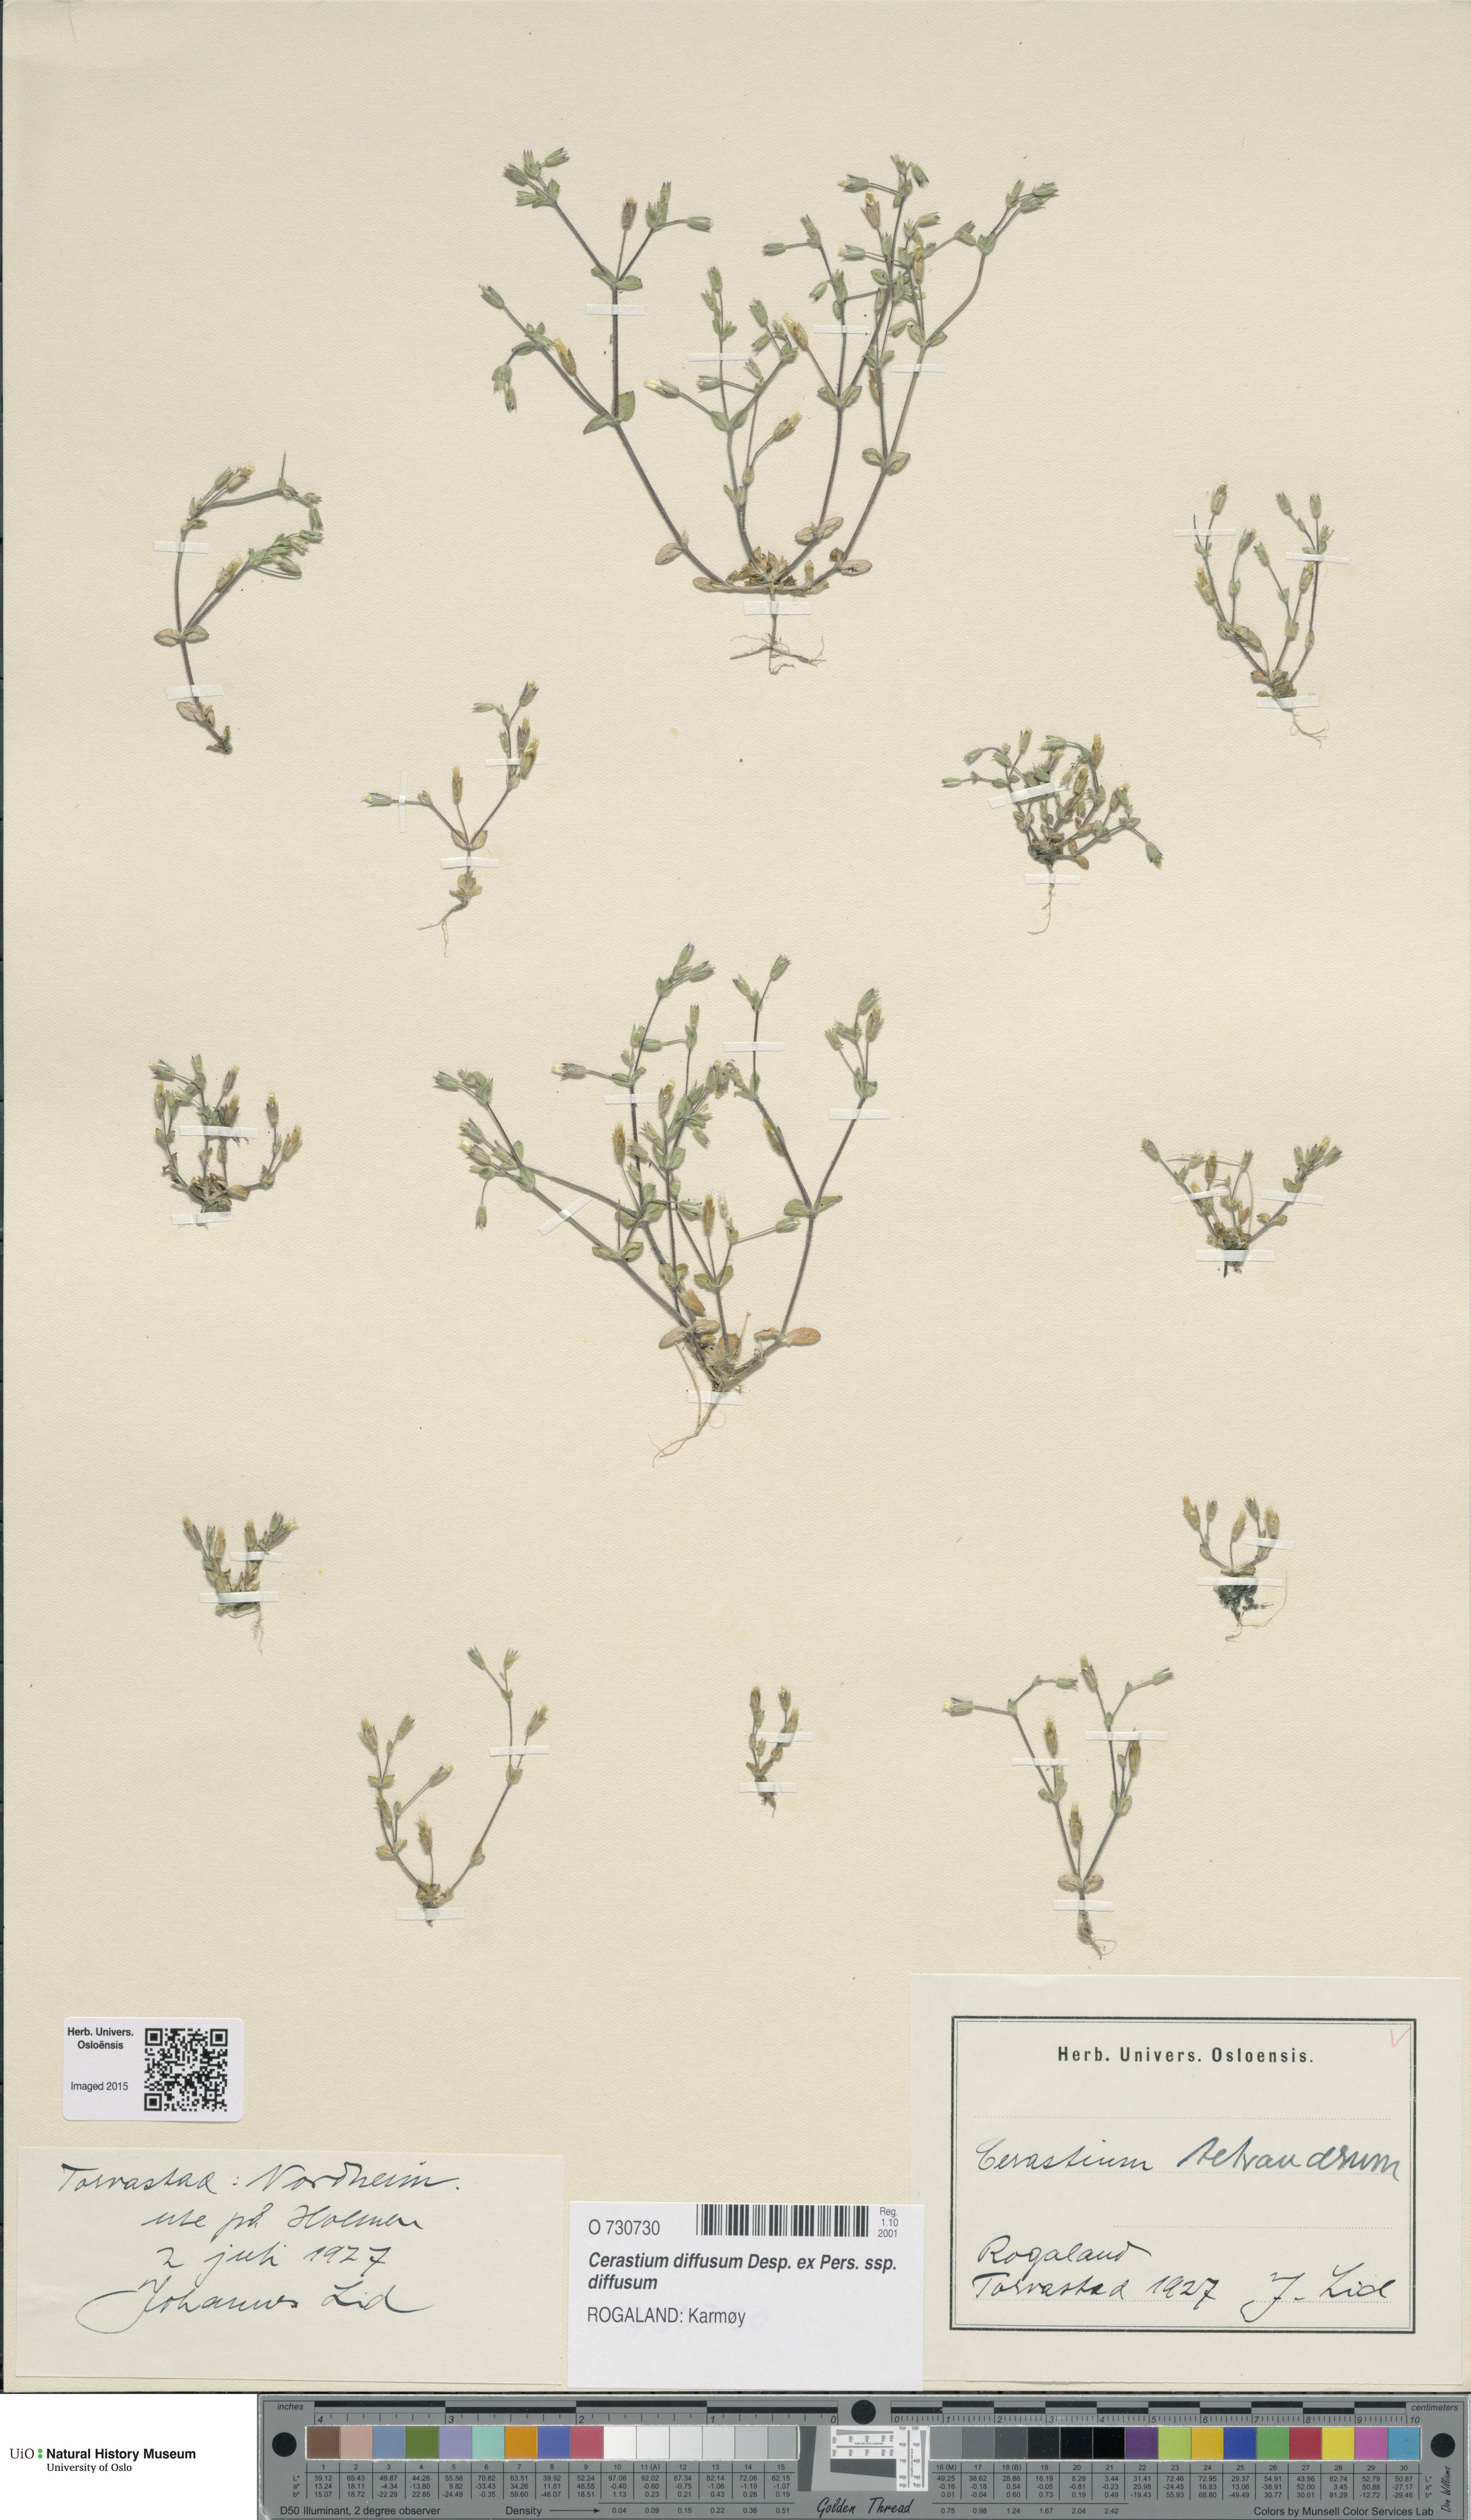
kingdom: Plantae
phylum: Tracheophyta
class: Magnoliopsida
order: Caryophyllales
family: Caryophyllaceae
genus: Cerastium
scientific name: Cerastium diffusum
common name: Fourstamen chickweed
